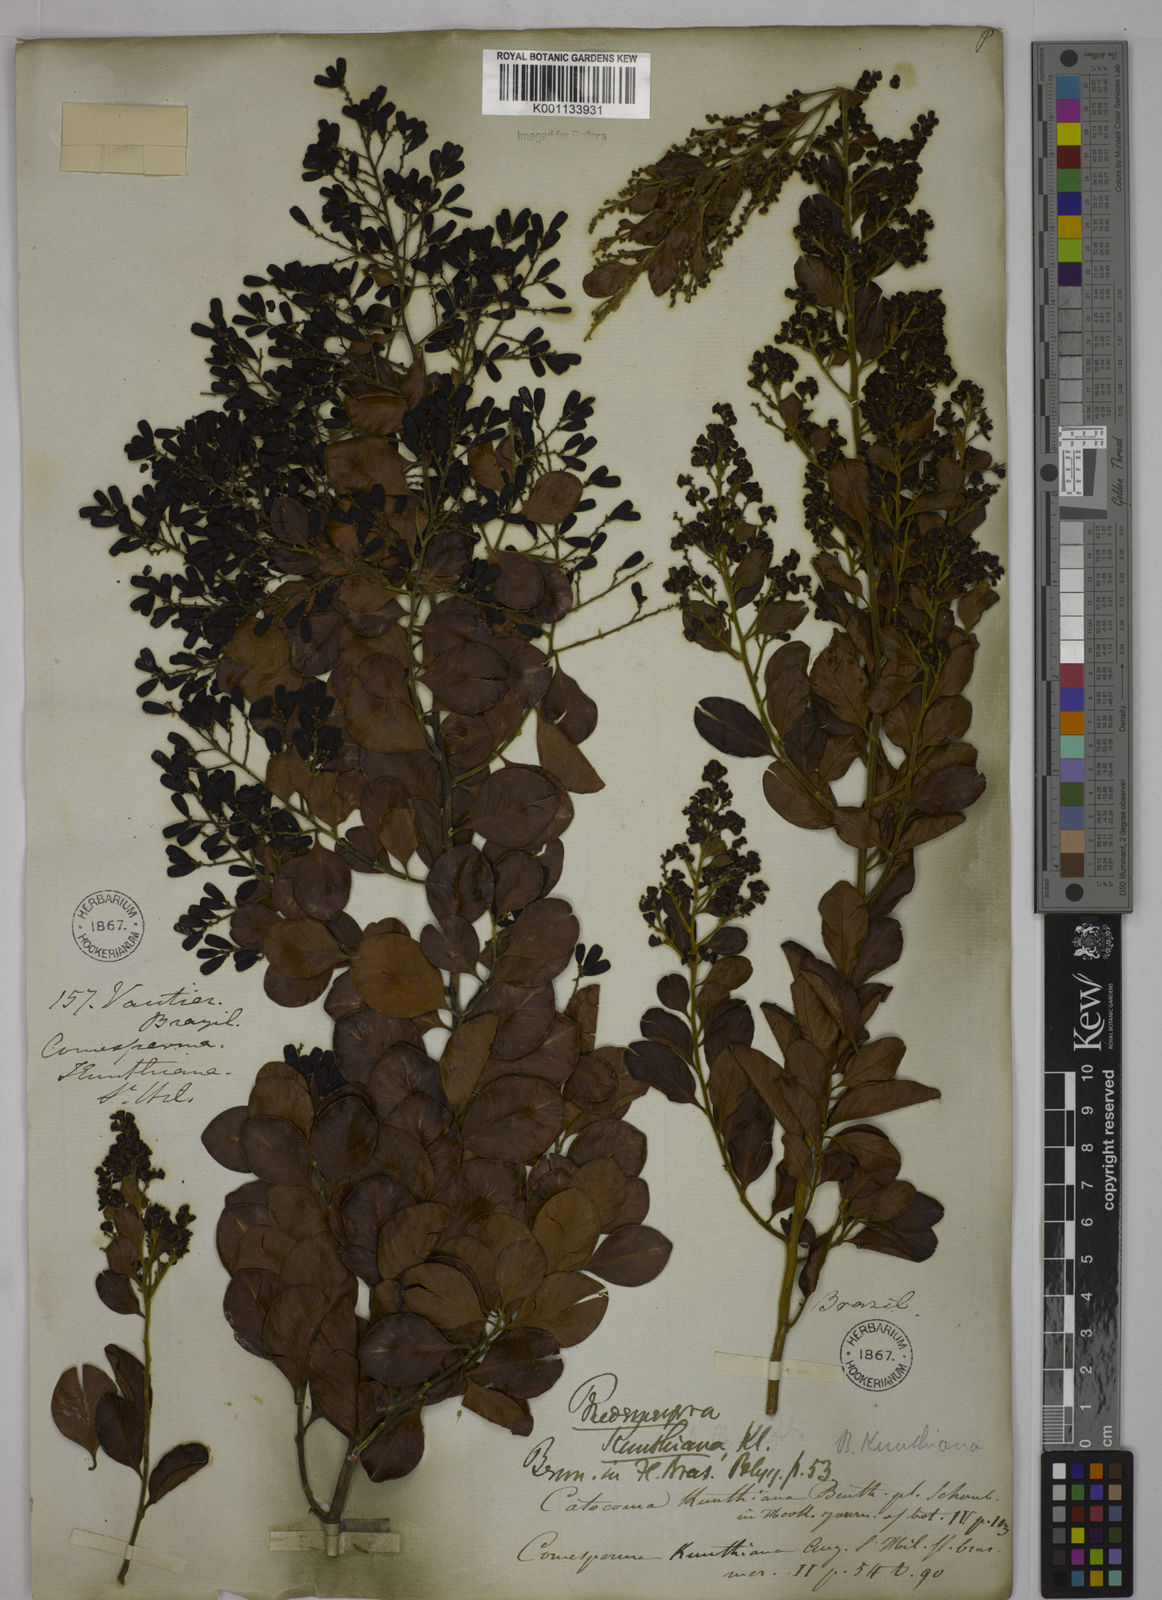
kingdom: Plantae
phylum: Tracheophyta
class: Magnoliopsida
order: Fabales
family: Polygalaceae
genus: Bredemeyera
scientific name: Bredemeyera hebeclada
